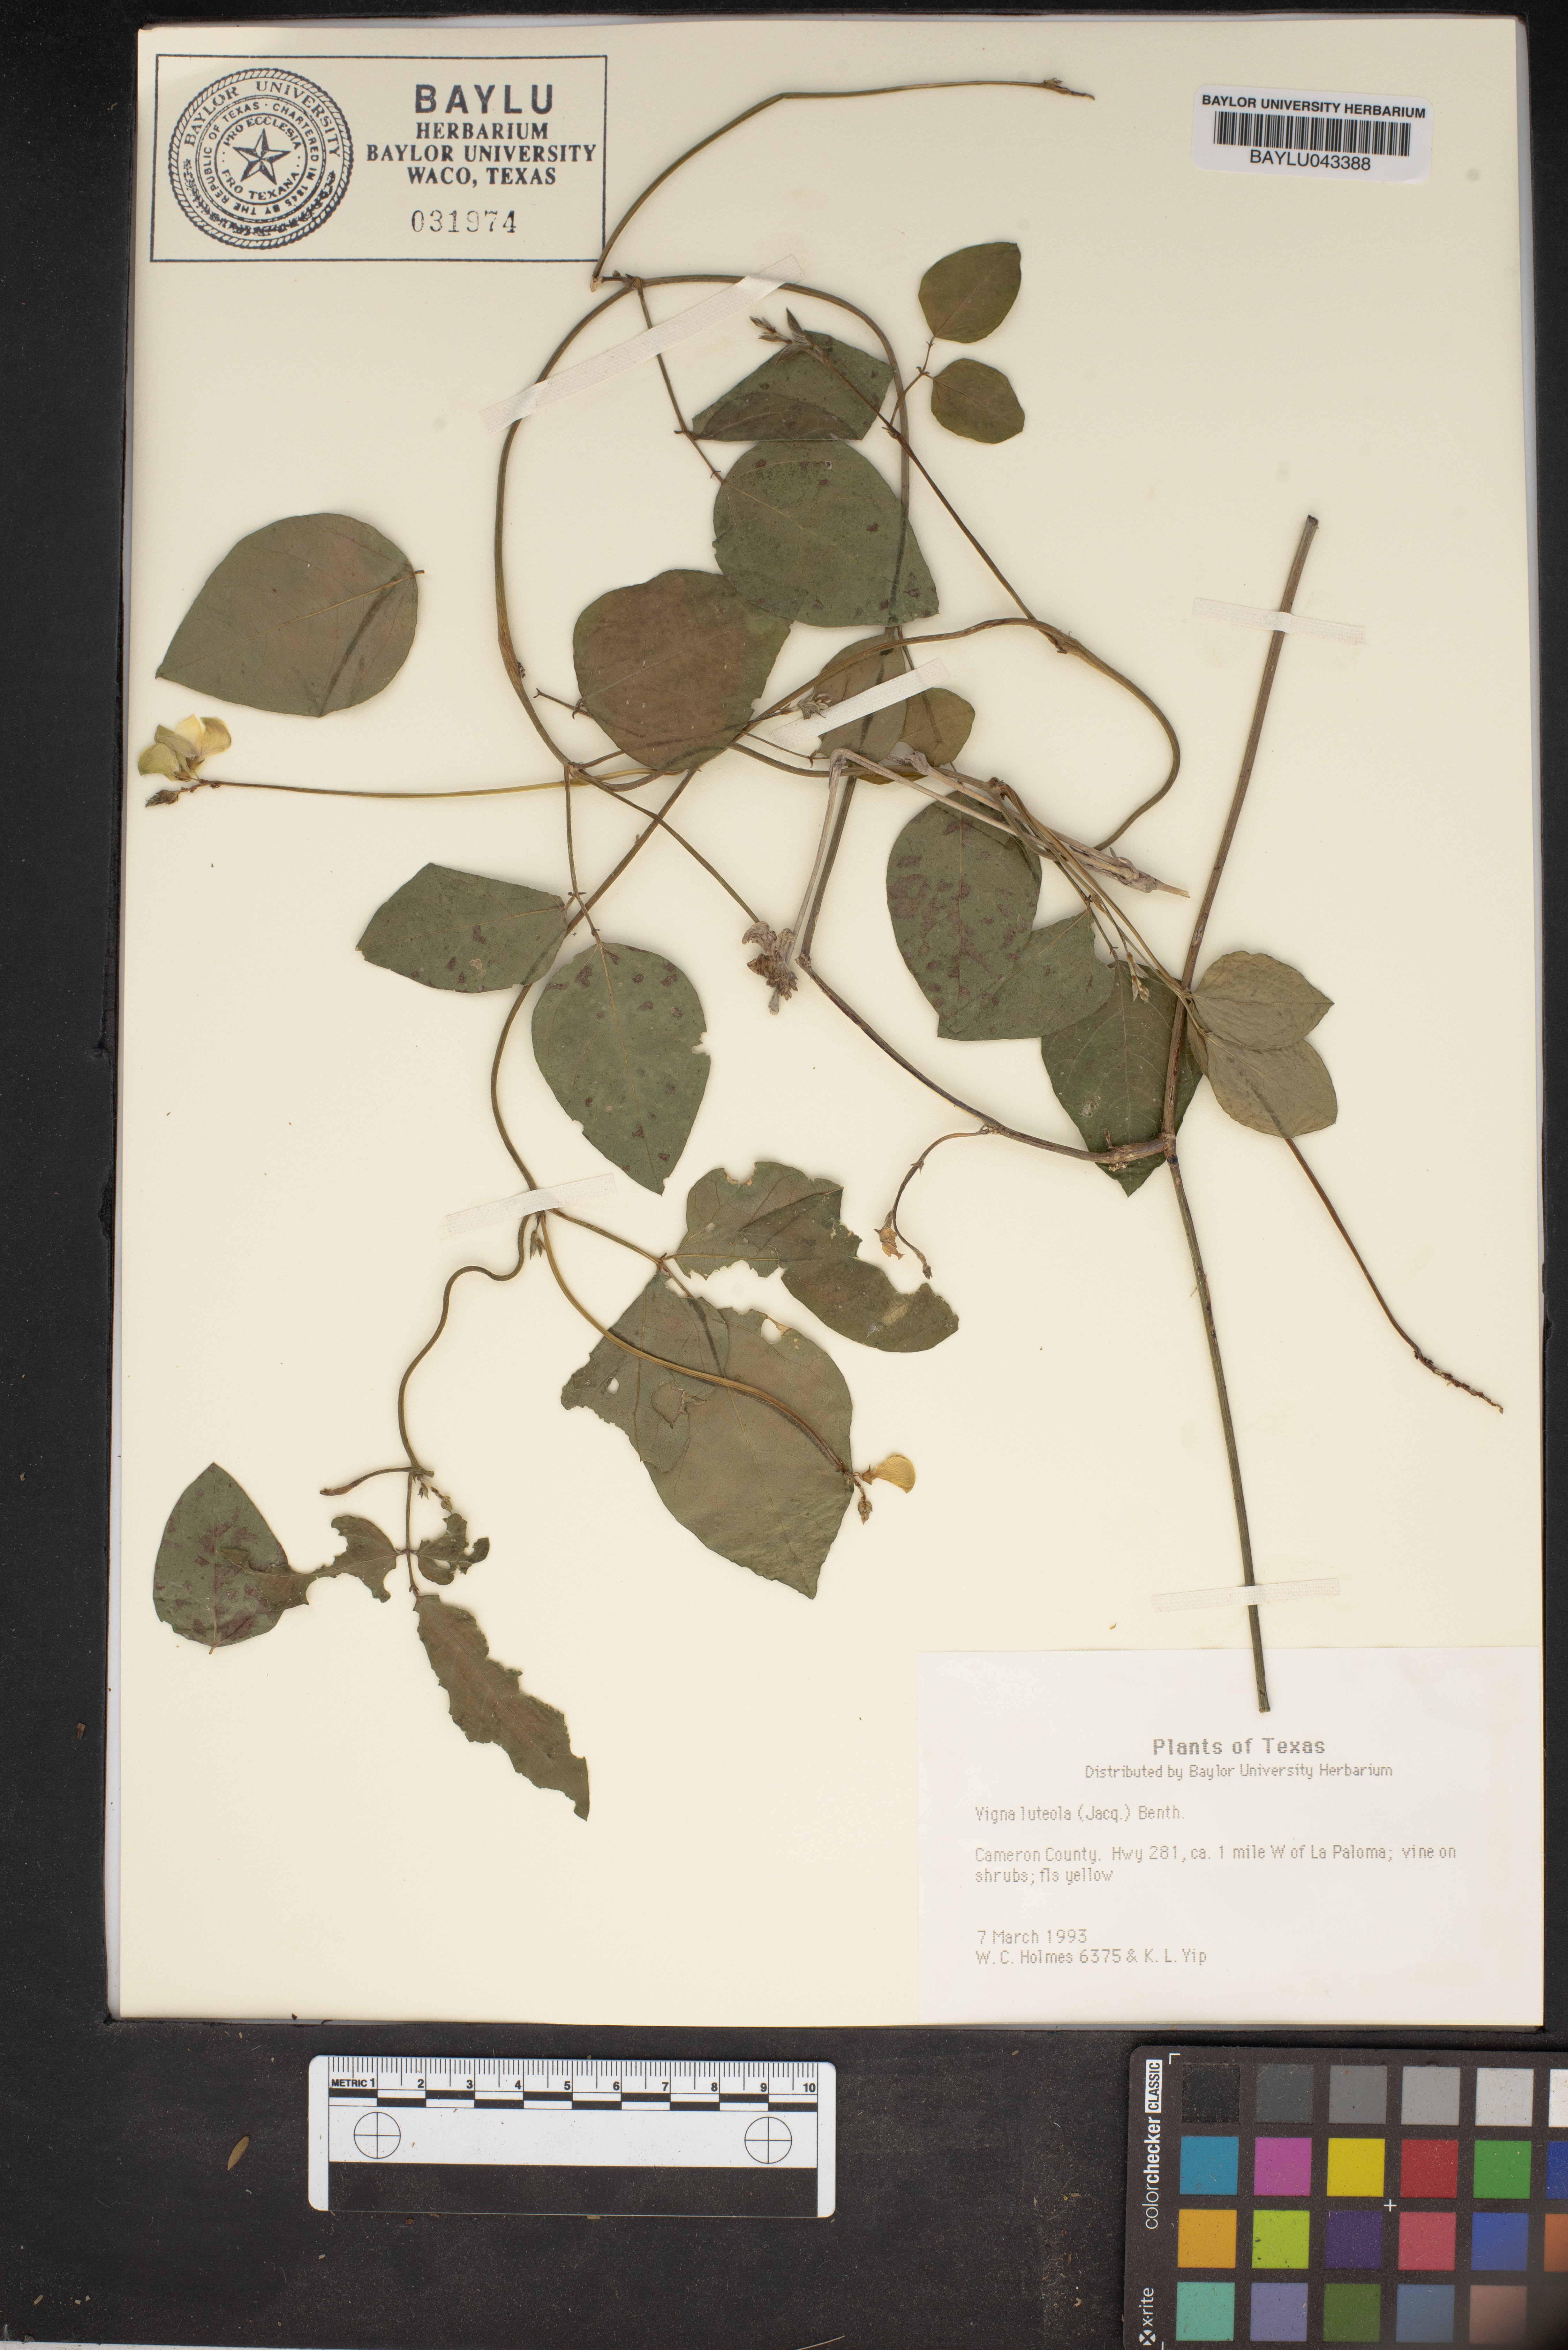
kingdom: Plantae
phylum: Tracheophyta
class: Magnoliopsida
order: Fabales
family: Fabaceae
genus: Vigna
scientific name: Vigna luteola
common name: Hairypod cowpea
